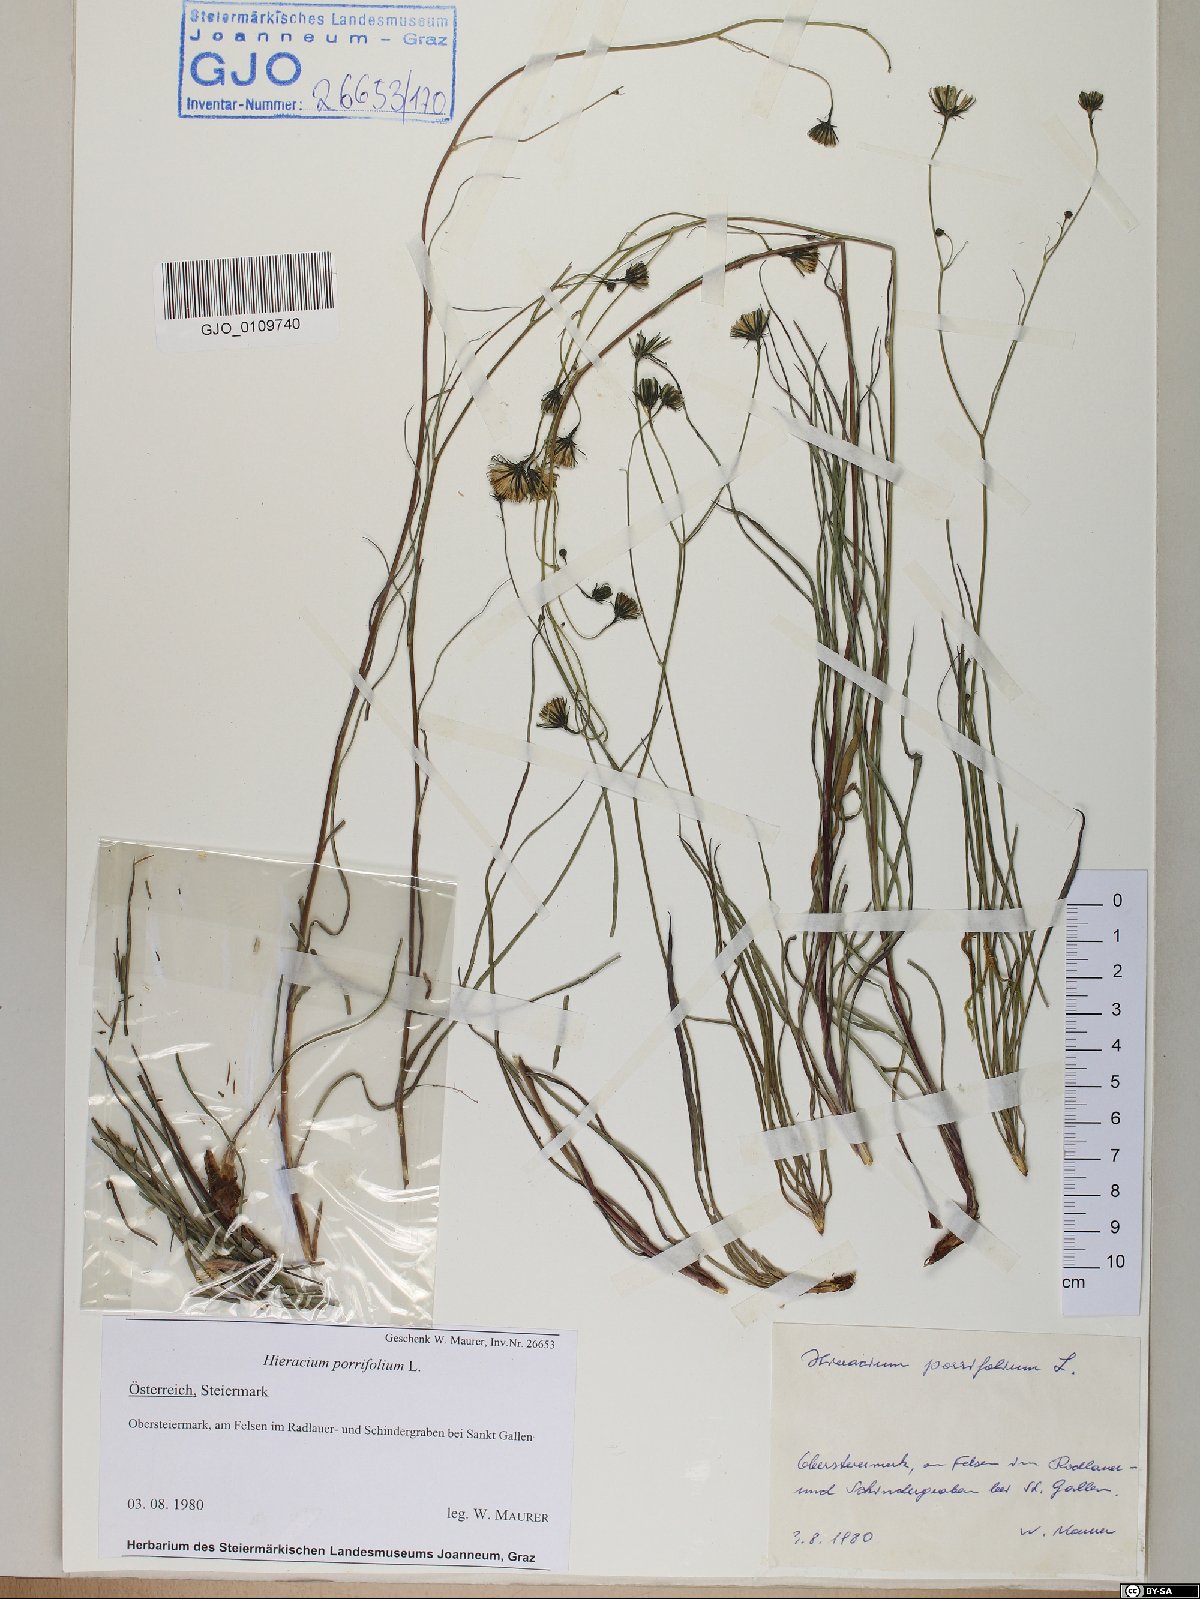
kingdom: Plantae
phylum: Tracheophyta
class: Magnoliopsida
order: Asterales
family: Asteraceae
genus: Hieracium
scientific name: Hieracium porrifolium
